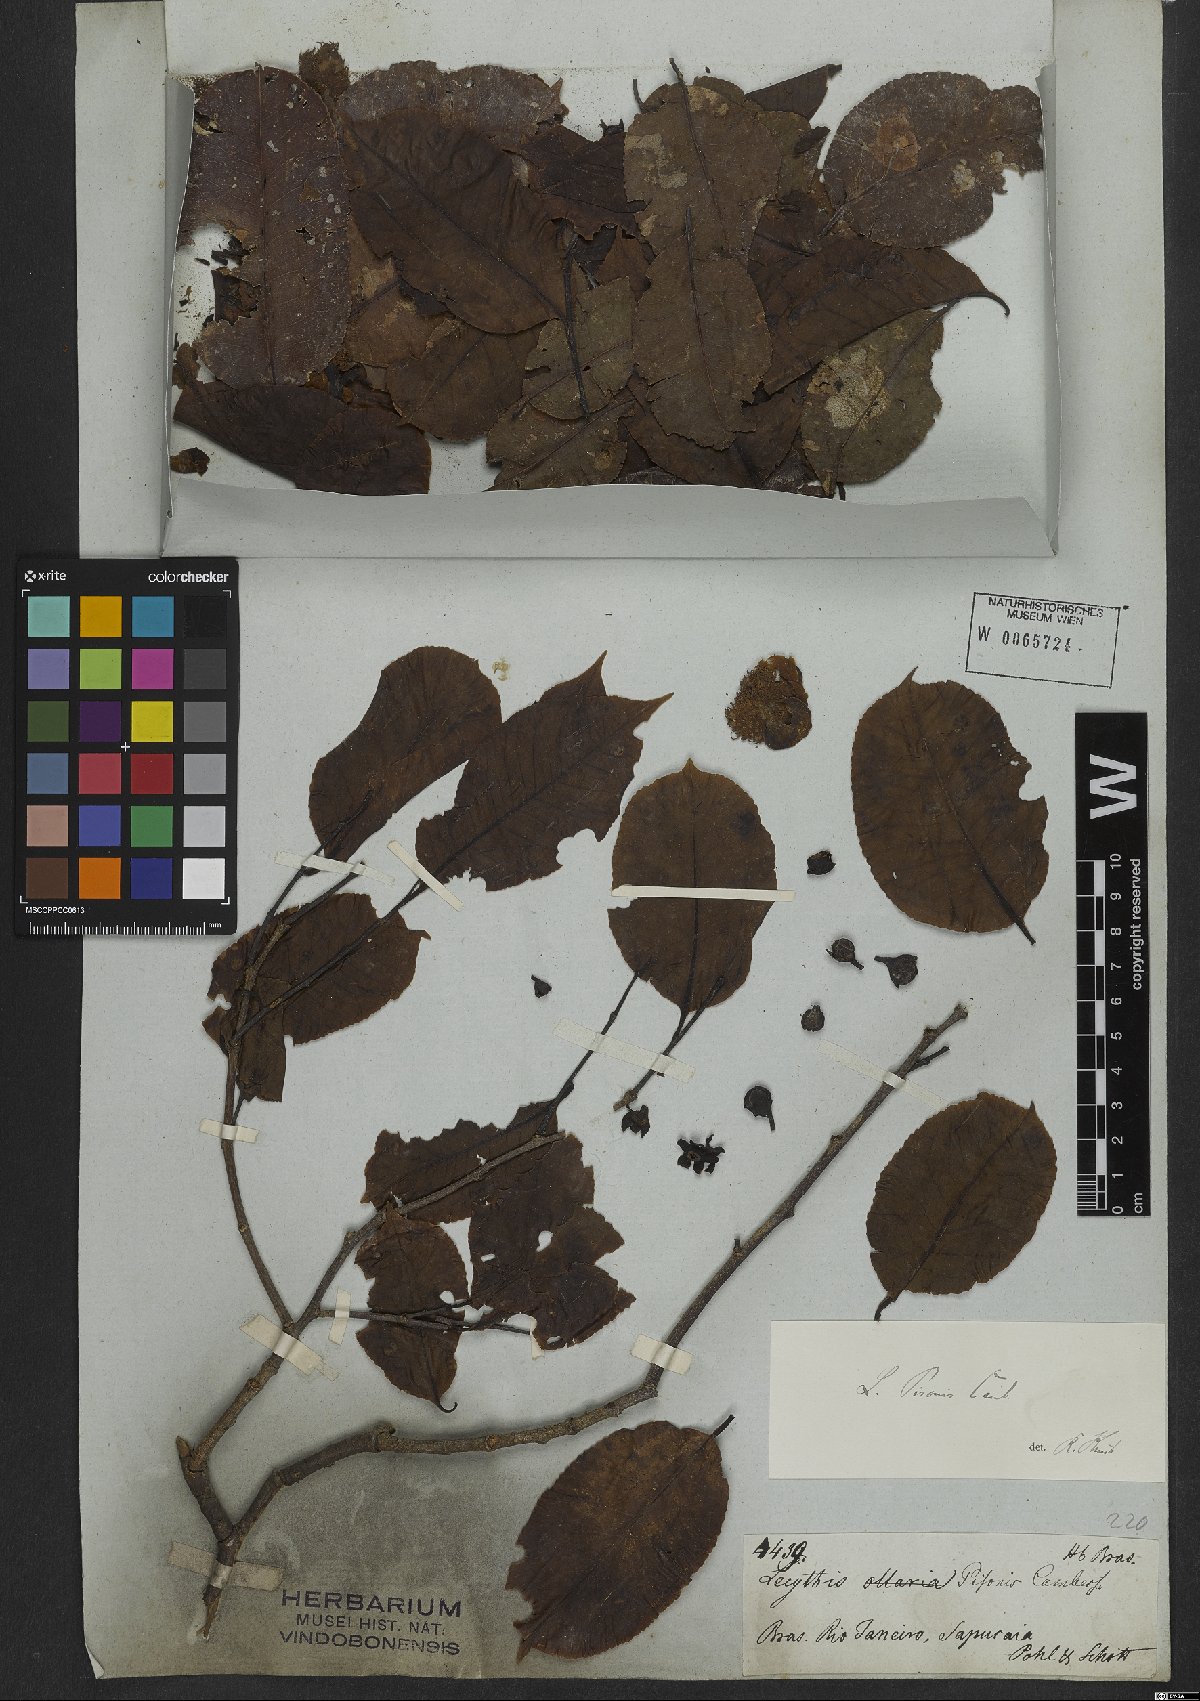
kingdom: Plantae
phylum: Tracheophyta
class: Magnoliopsida
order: Ericales
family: Lecythidaceae
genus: Lecythis
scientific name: Lecythis pisonis
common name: Paradise-nut
